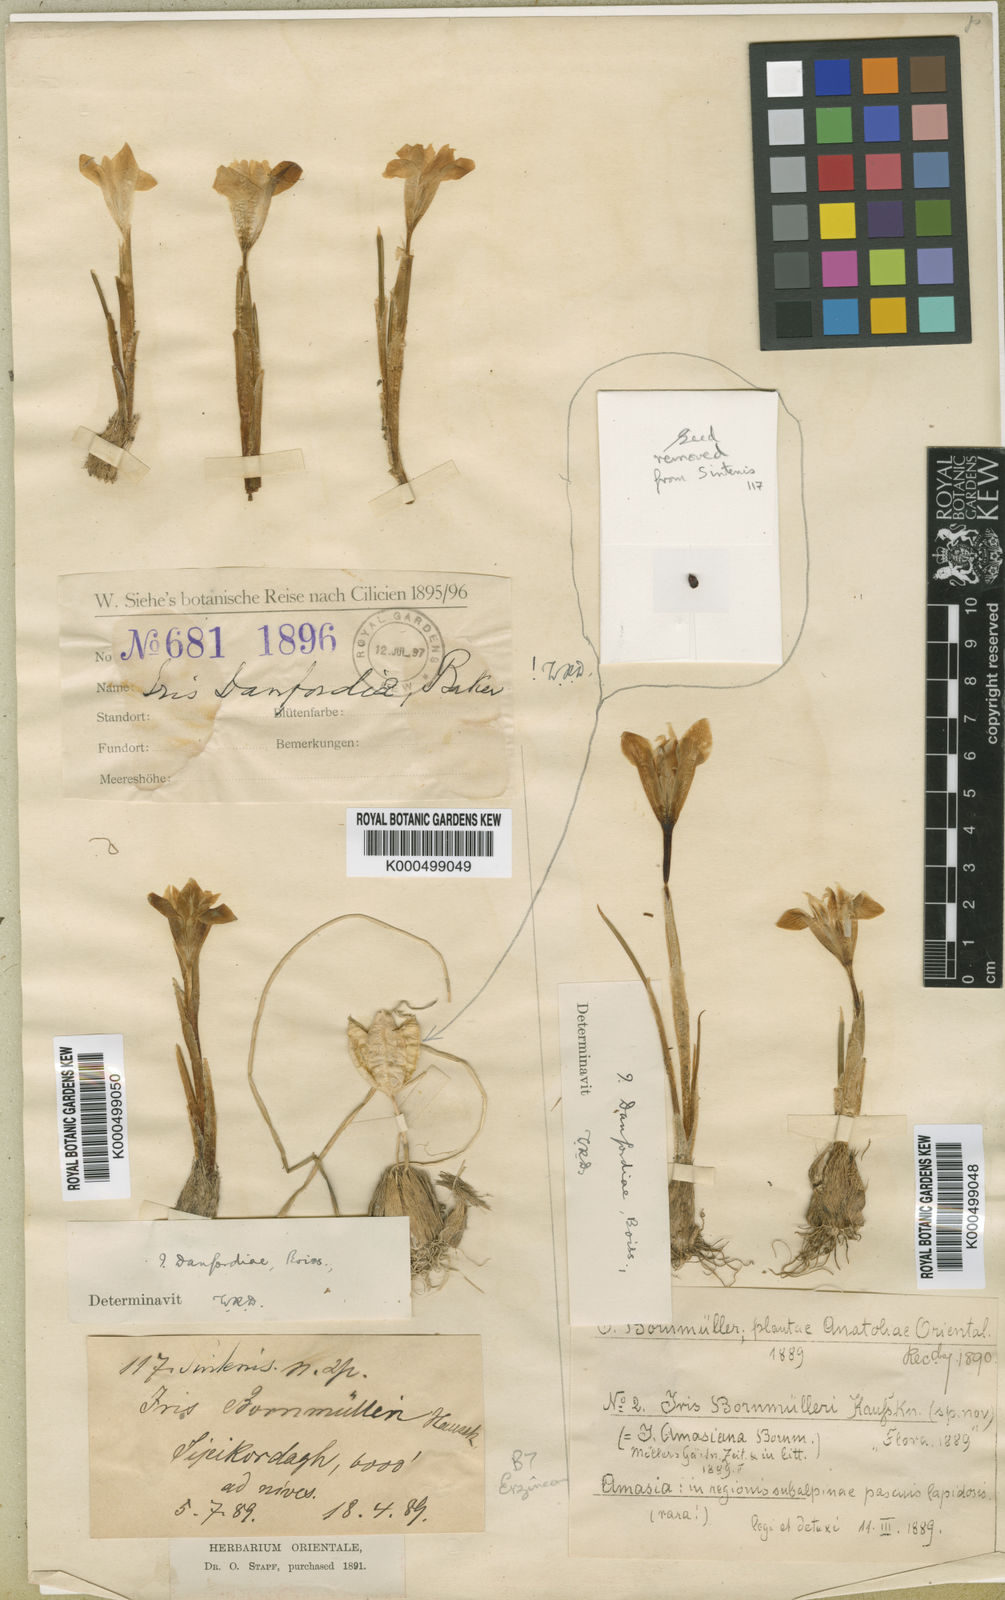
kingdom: Plantae
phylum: Tracheophyta
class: Liliopsida
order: Asparagales
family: Iridaceae
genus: Iris
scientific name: Iris danfordiae
